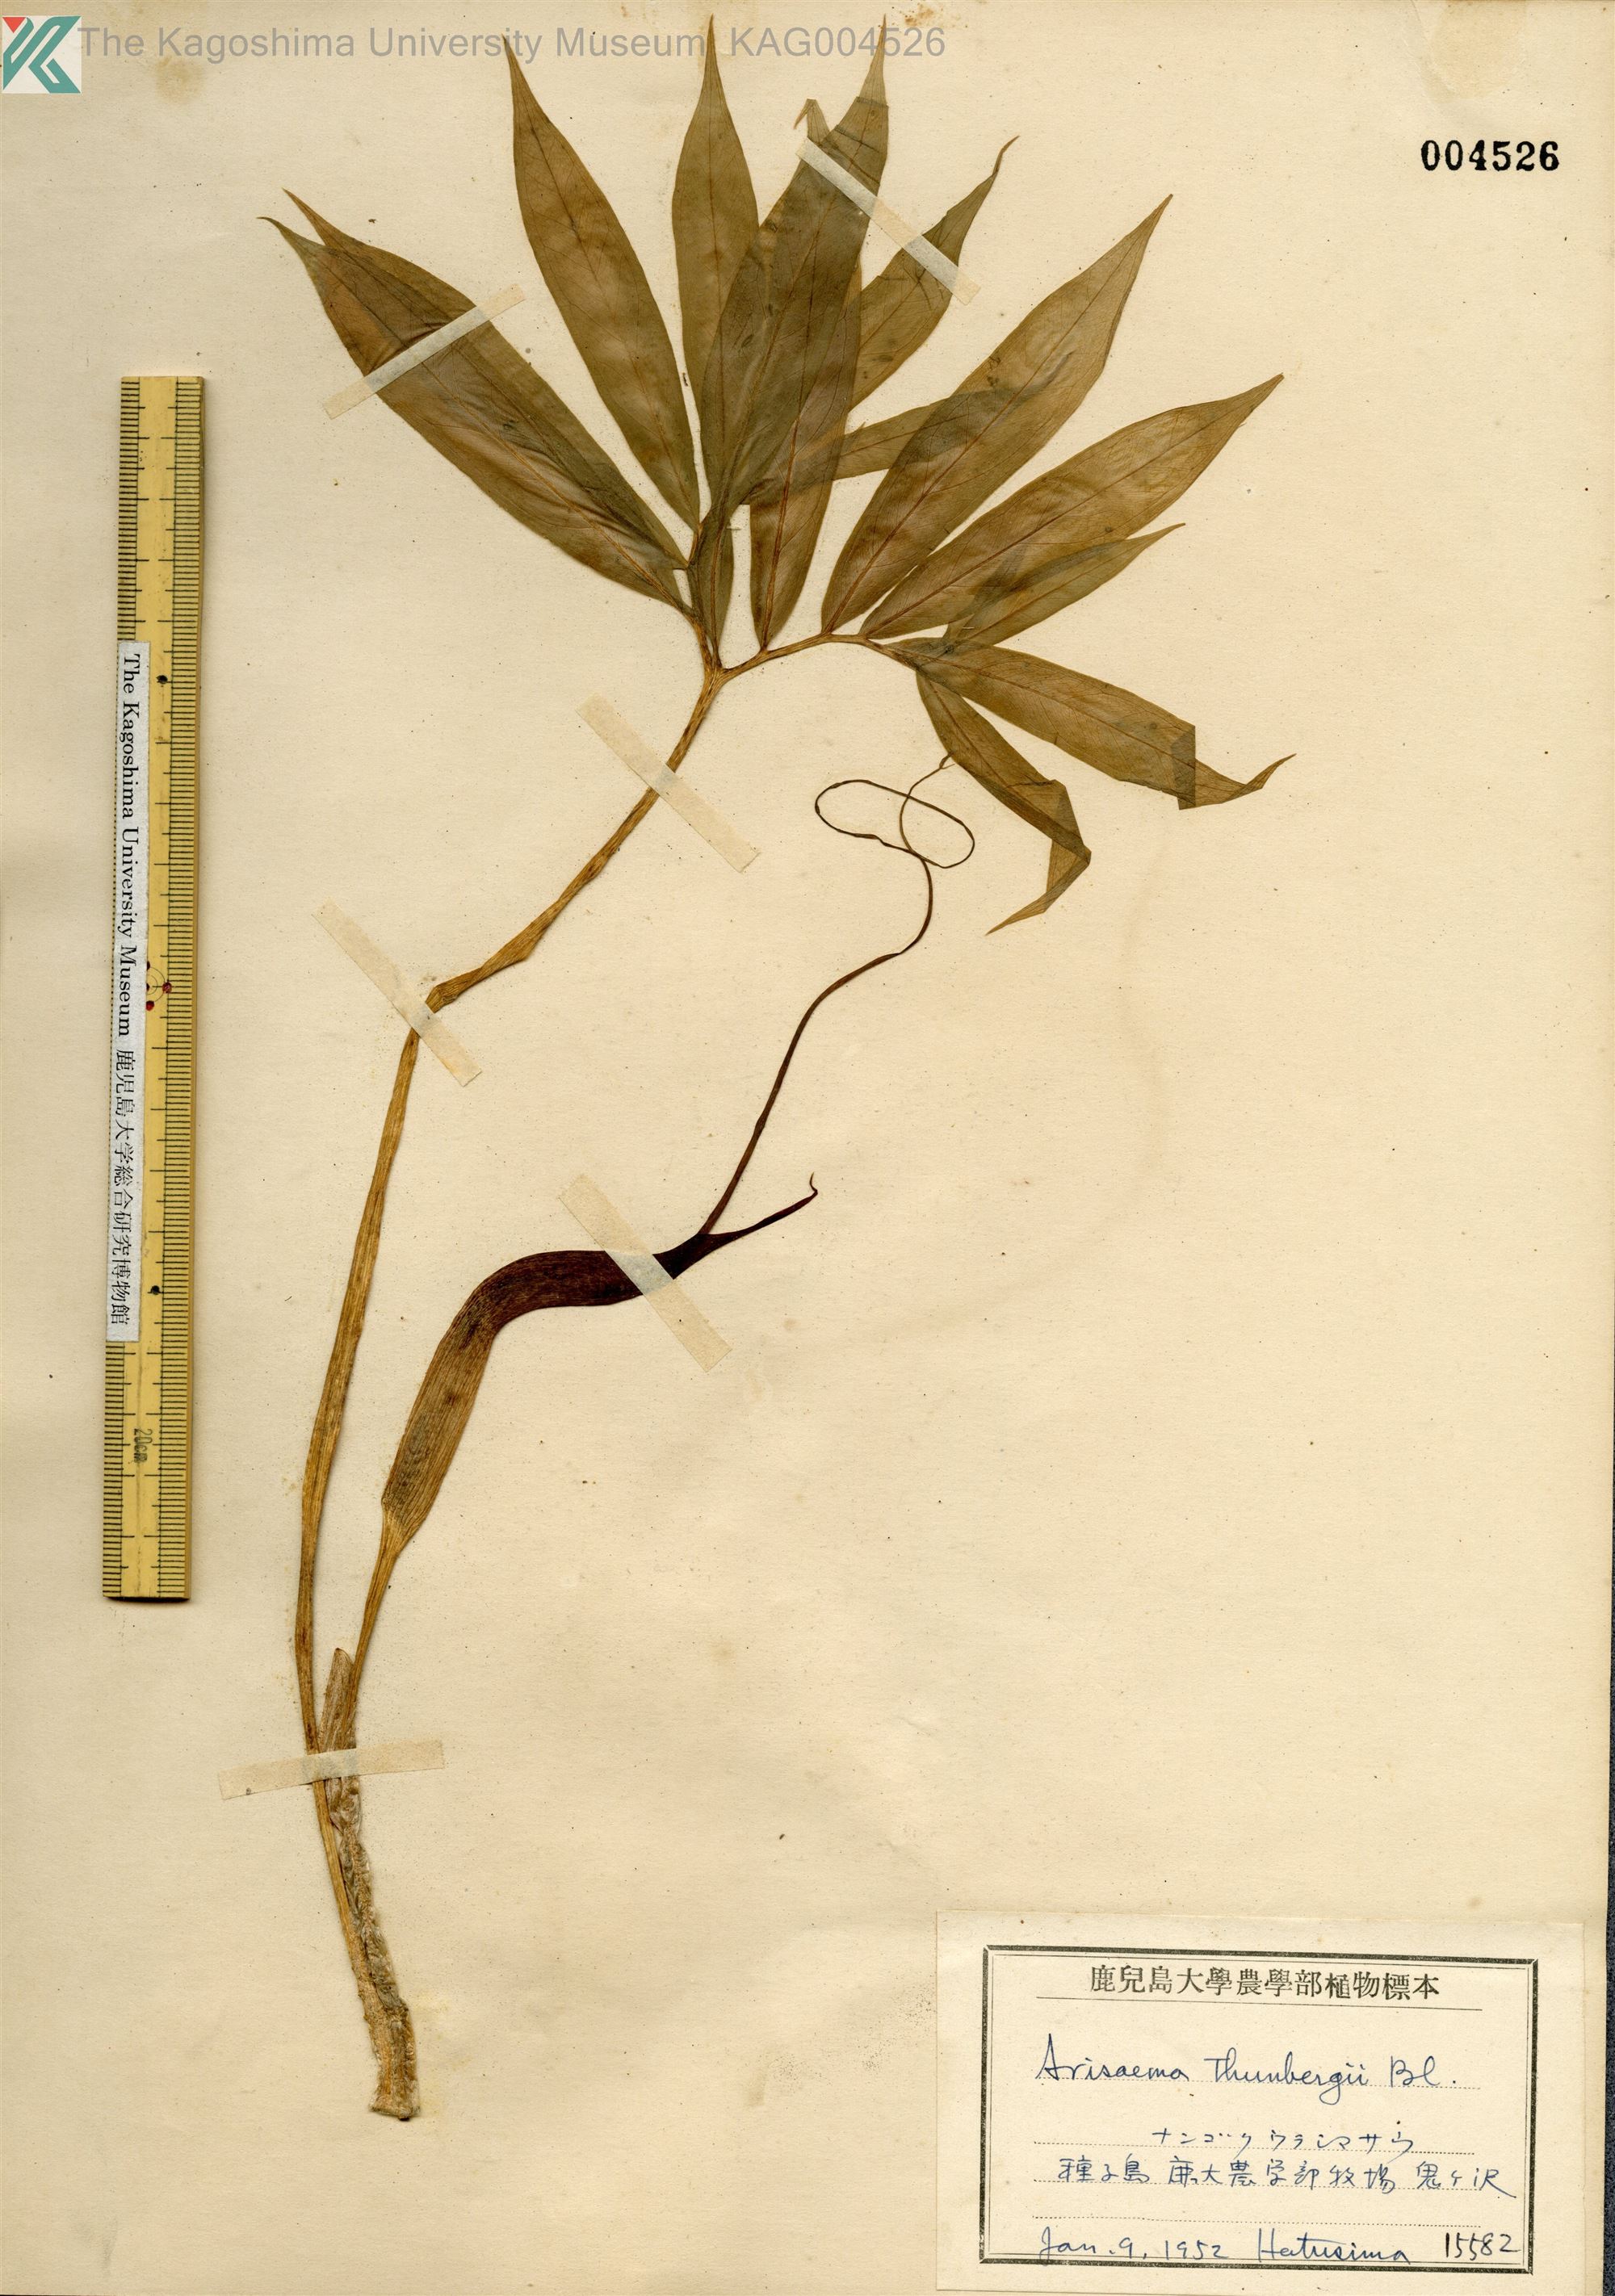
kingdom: Plantae
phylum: Tracheophyta
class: Liliopsida
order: Alismatales
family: Araceae
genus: Arisaema
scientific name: Arisaema thunbergii
